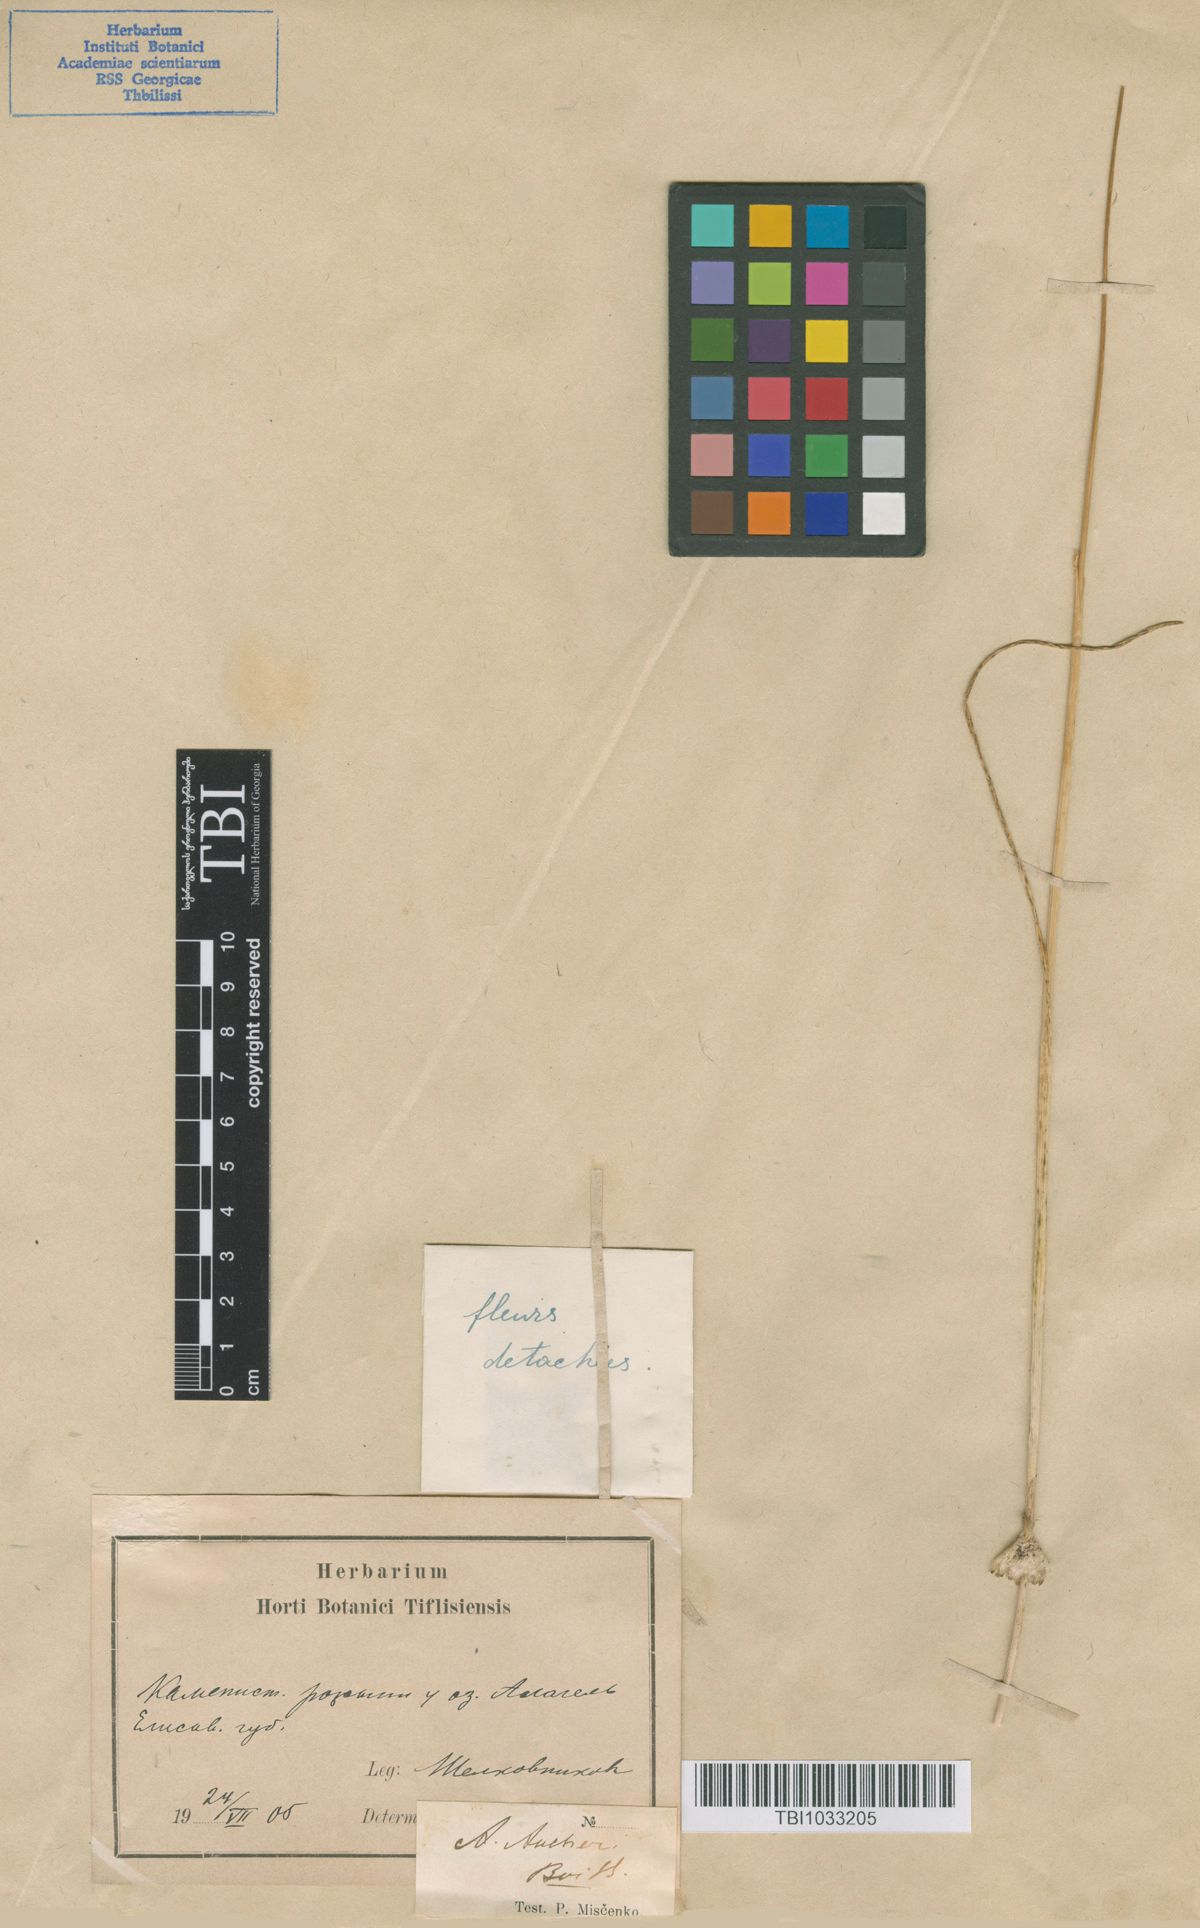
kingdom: Plantae
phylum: Tracheophyta
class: Liliopsida
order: Asparagales
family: Amaryllidaceae
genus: Allium
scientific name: Allium aucheri
